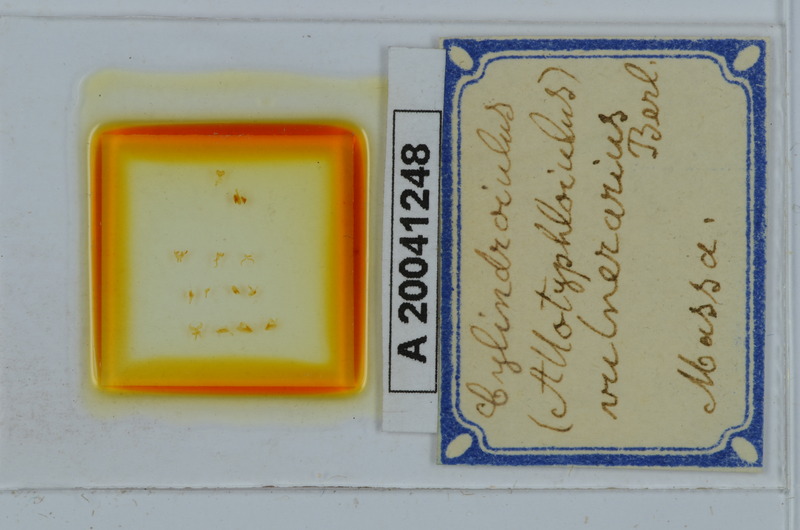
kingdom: Animalia
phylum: Arthropoda
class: Diplopoda
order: Julida
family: Julidae
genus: Cylindroiulus
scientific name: Cylindroiulus vulnerarius
